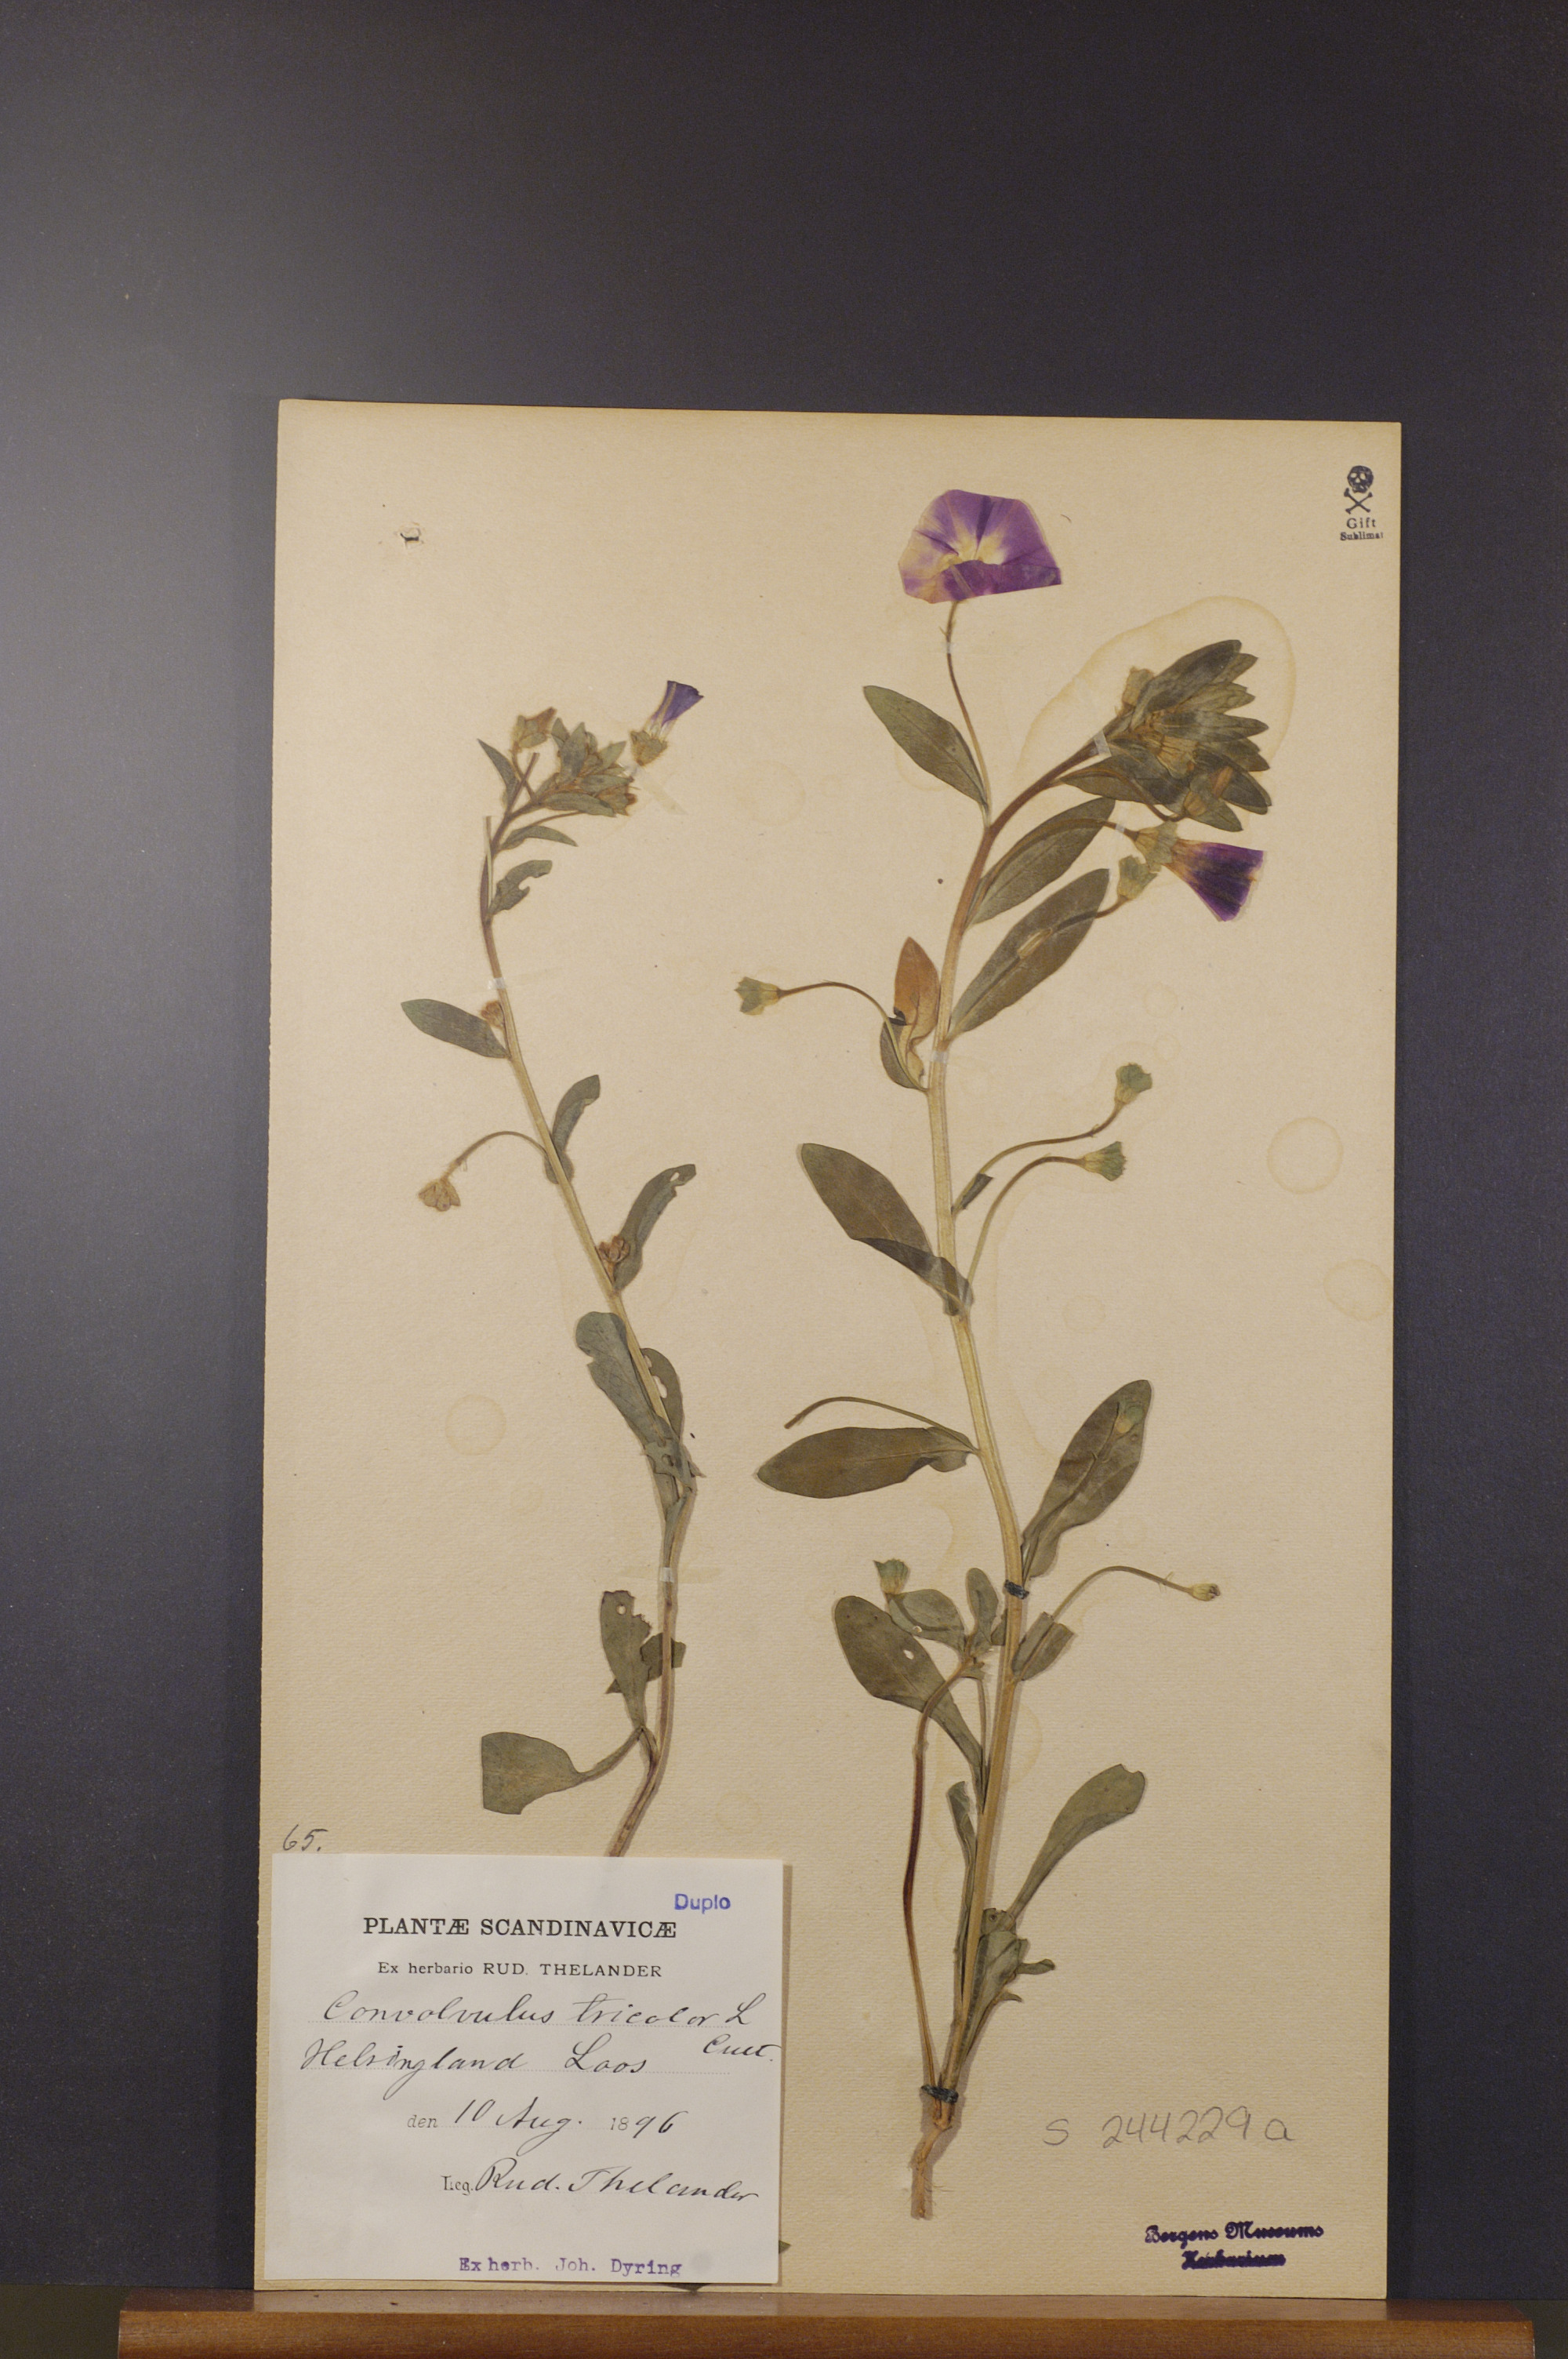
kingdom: Plantae
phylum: Tracheophyta
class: Magnoliopsida
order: Solanales
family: Convolvulaceae
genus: Convolvulus
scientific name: Convolvulus tricolor
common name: Dwarf morning-glory
